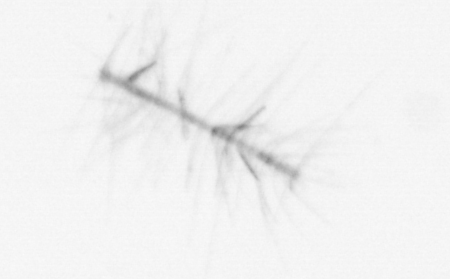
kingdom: Chromista
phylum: Ochrophyta
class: Bacillariophyceae
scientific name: Bacillariophyceae
